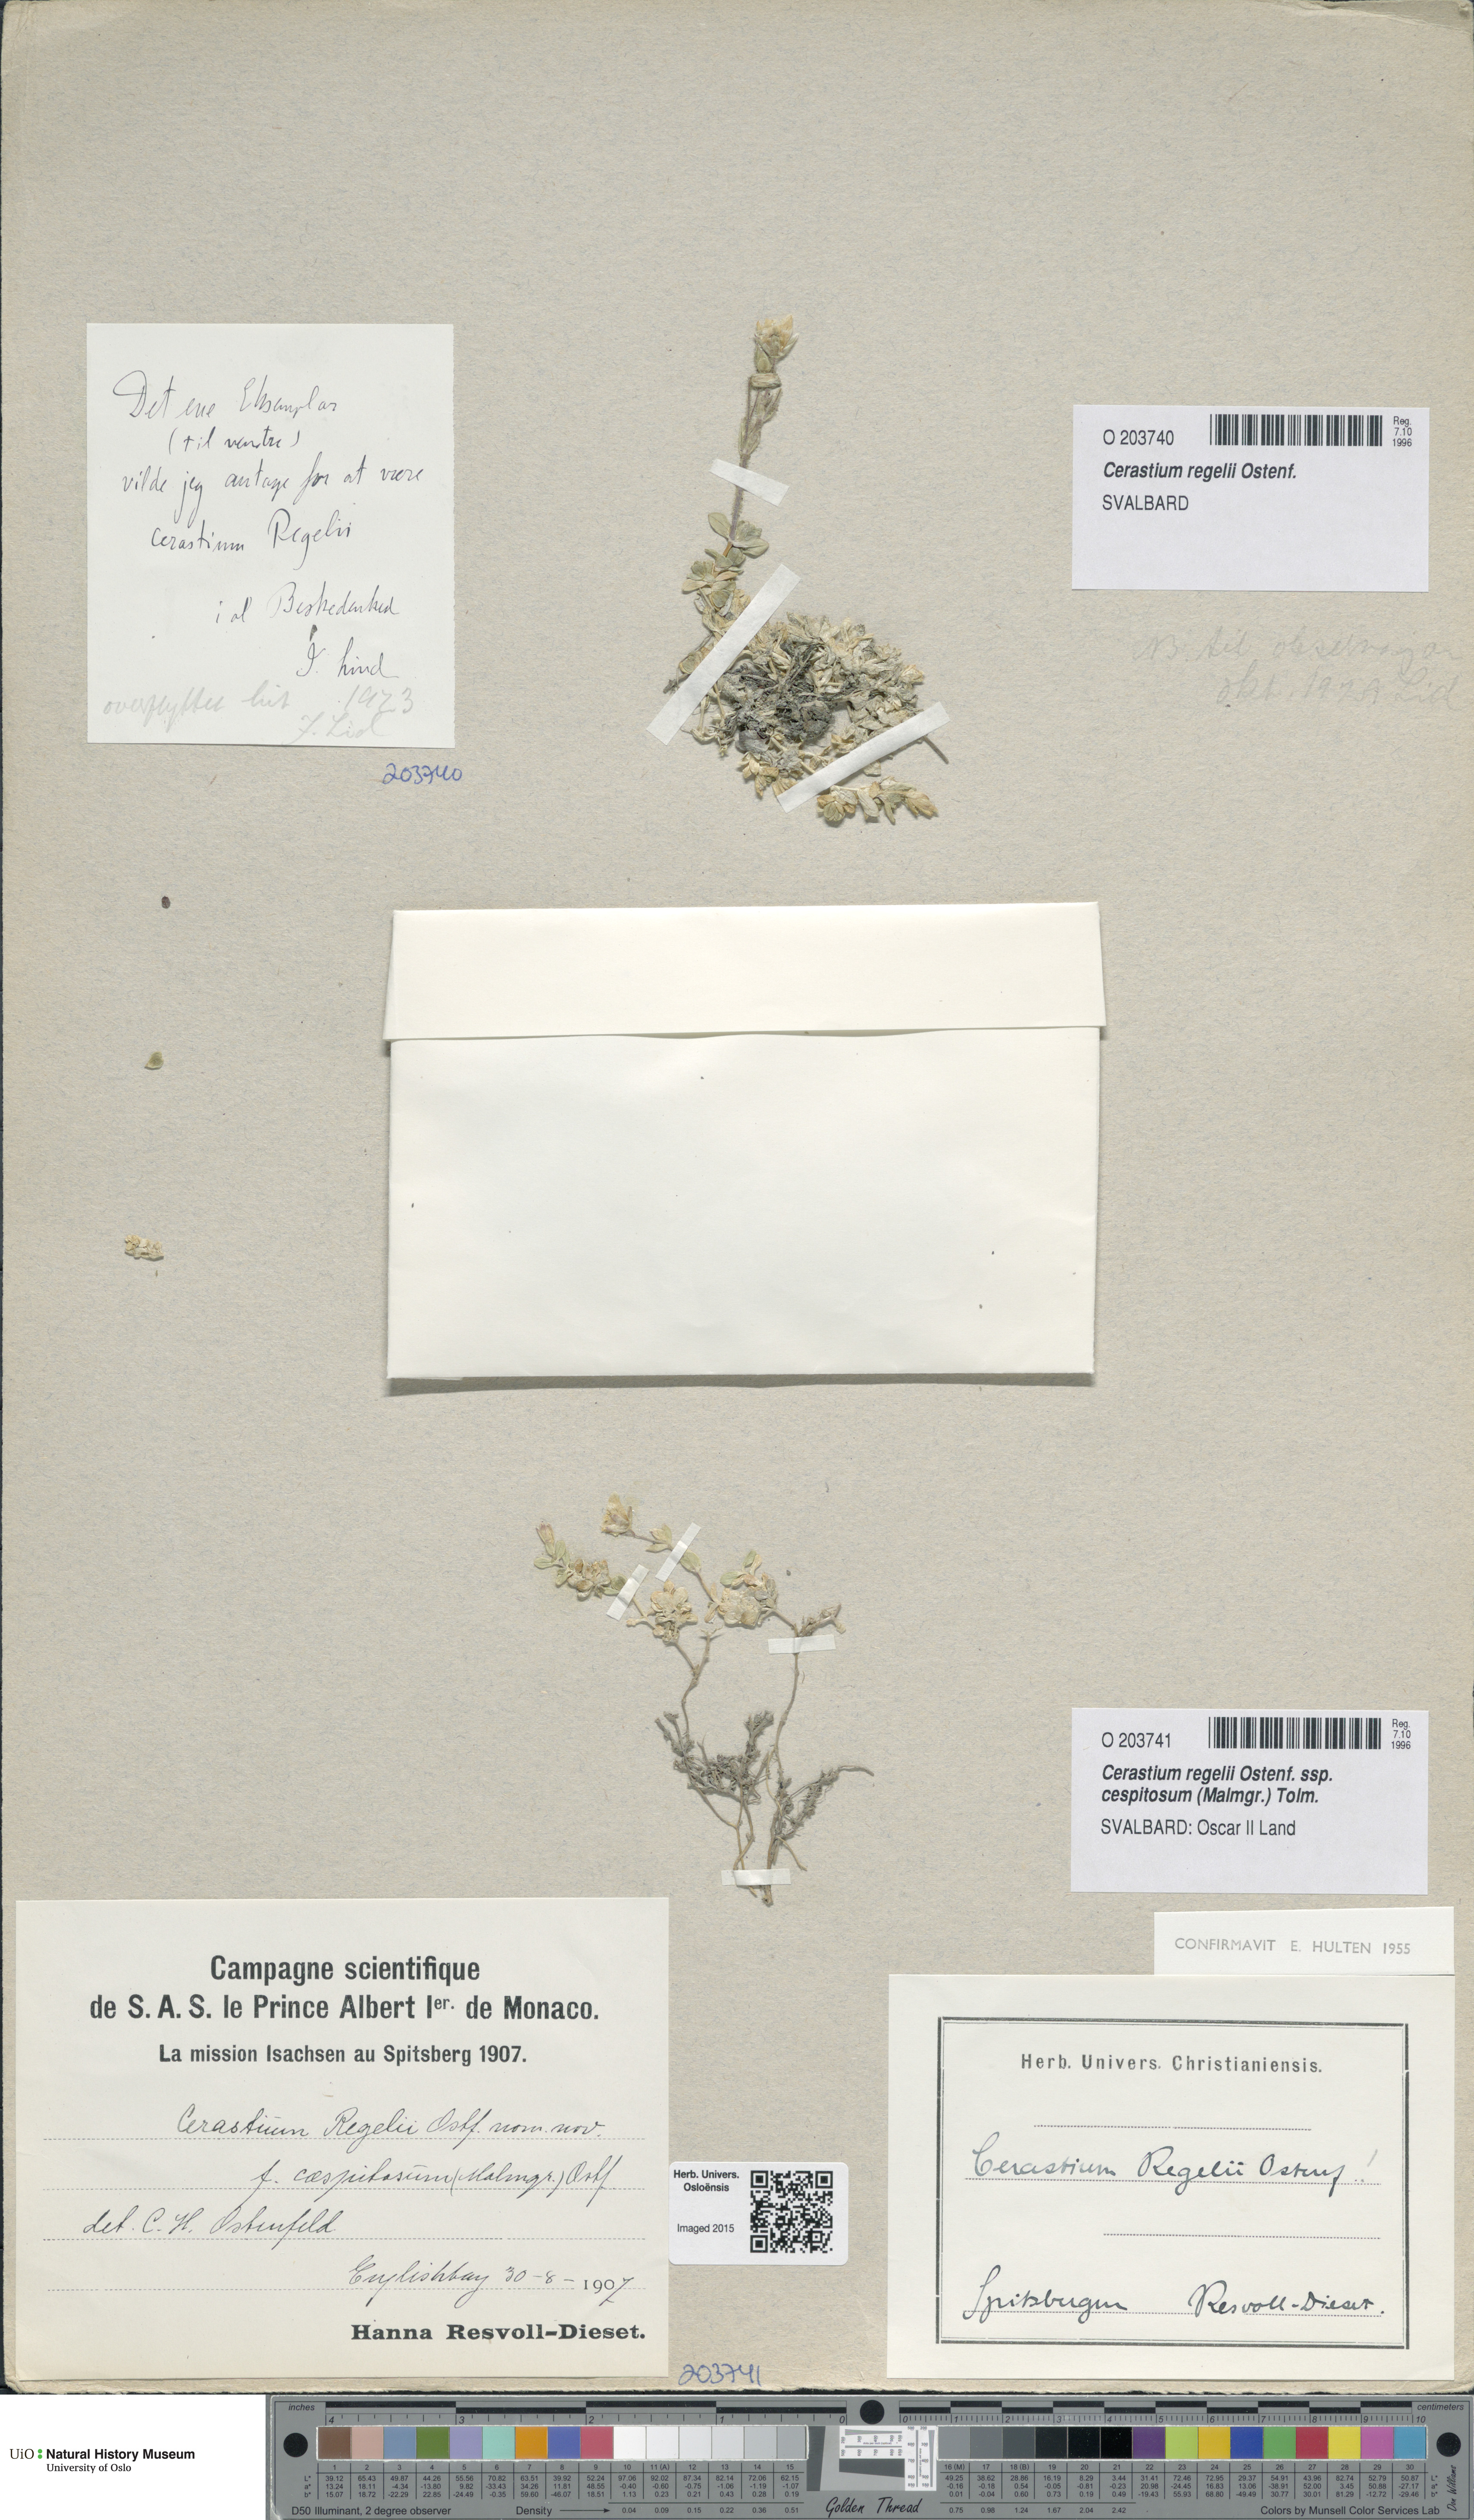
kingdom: Plantae
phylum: Tracheophyta
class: Magnoliopsida
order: Caryophyllales
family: Caryophyllaceae
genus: Cerastium
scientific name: Cerastium regelii
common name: Regel's chickweed
